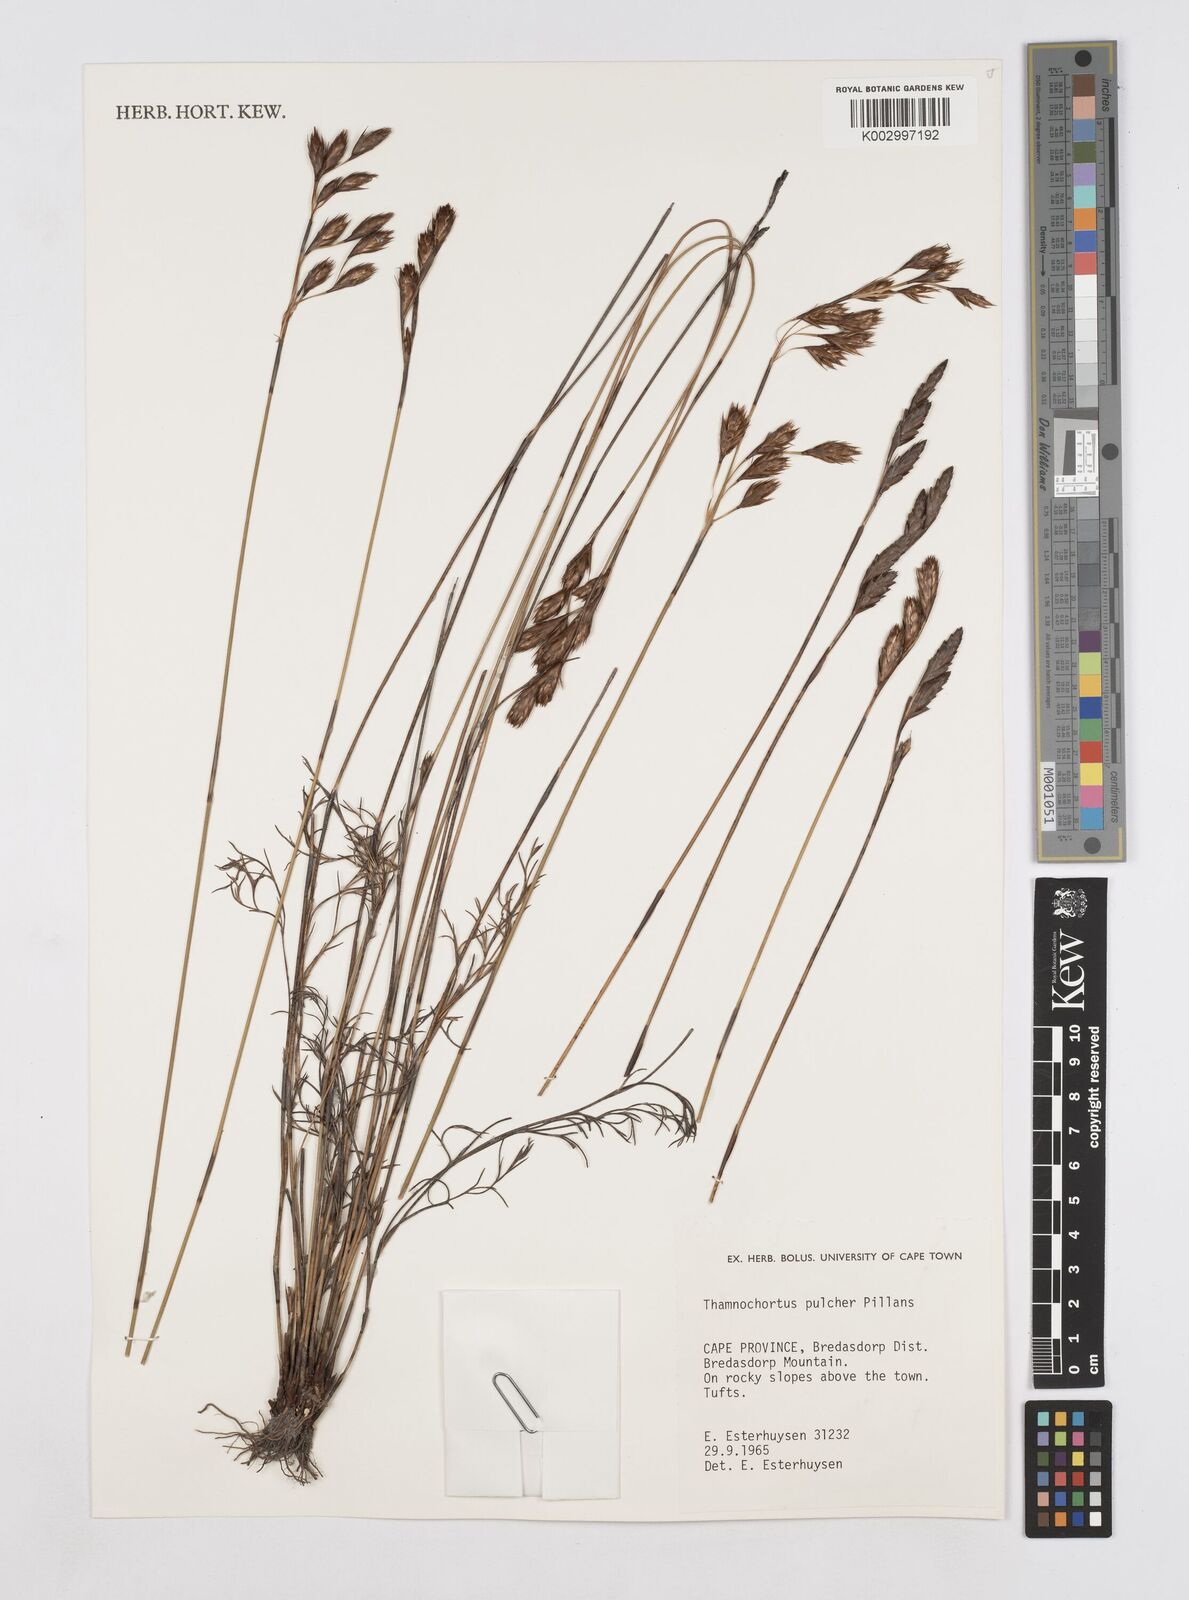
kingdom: Plantae
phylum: Tracheophyta
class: Liliopsida
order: Poales
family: Restionaceae
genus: Thamnochortus
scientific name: Thamnochortus pulcher
